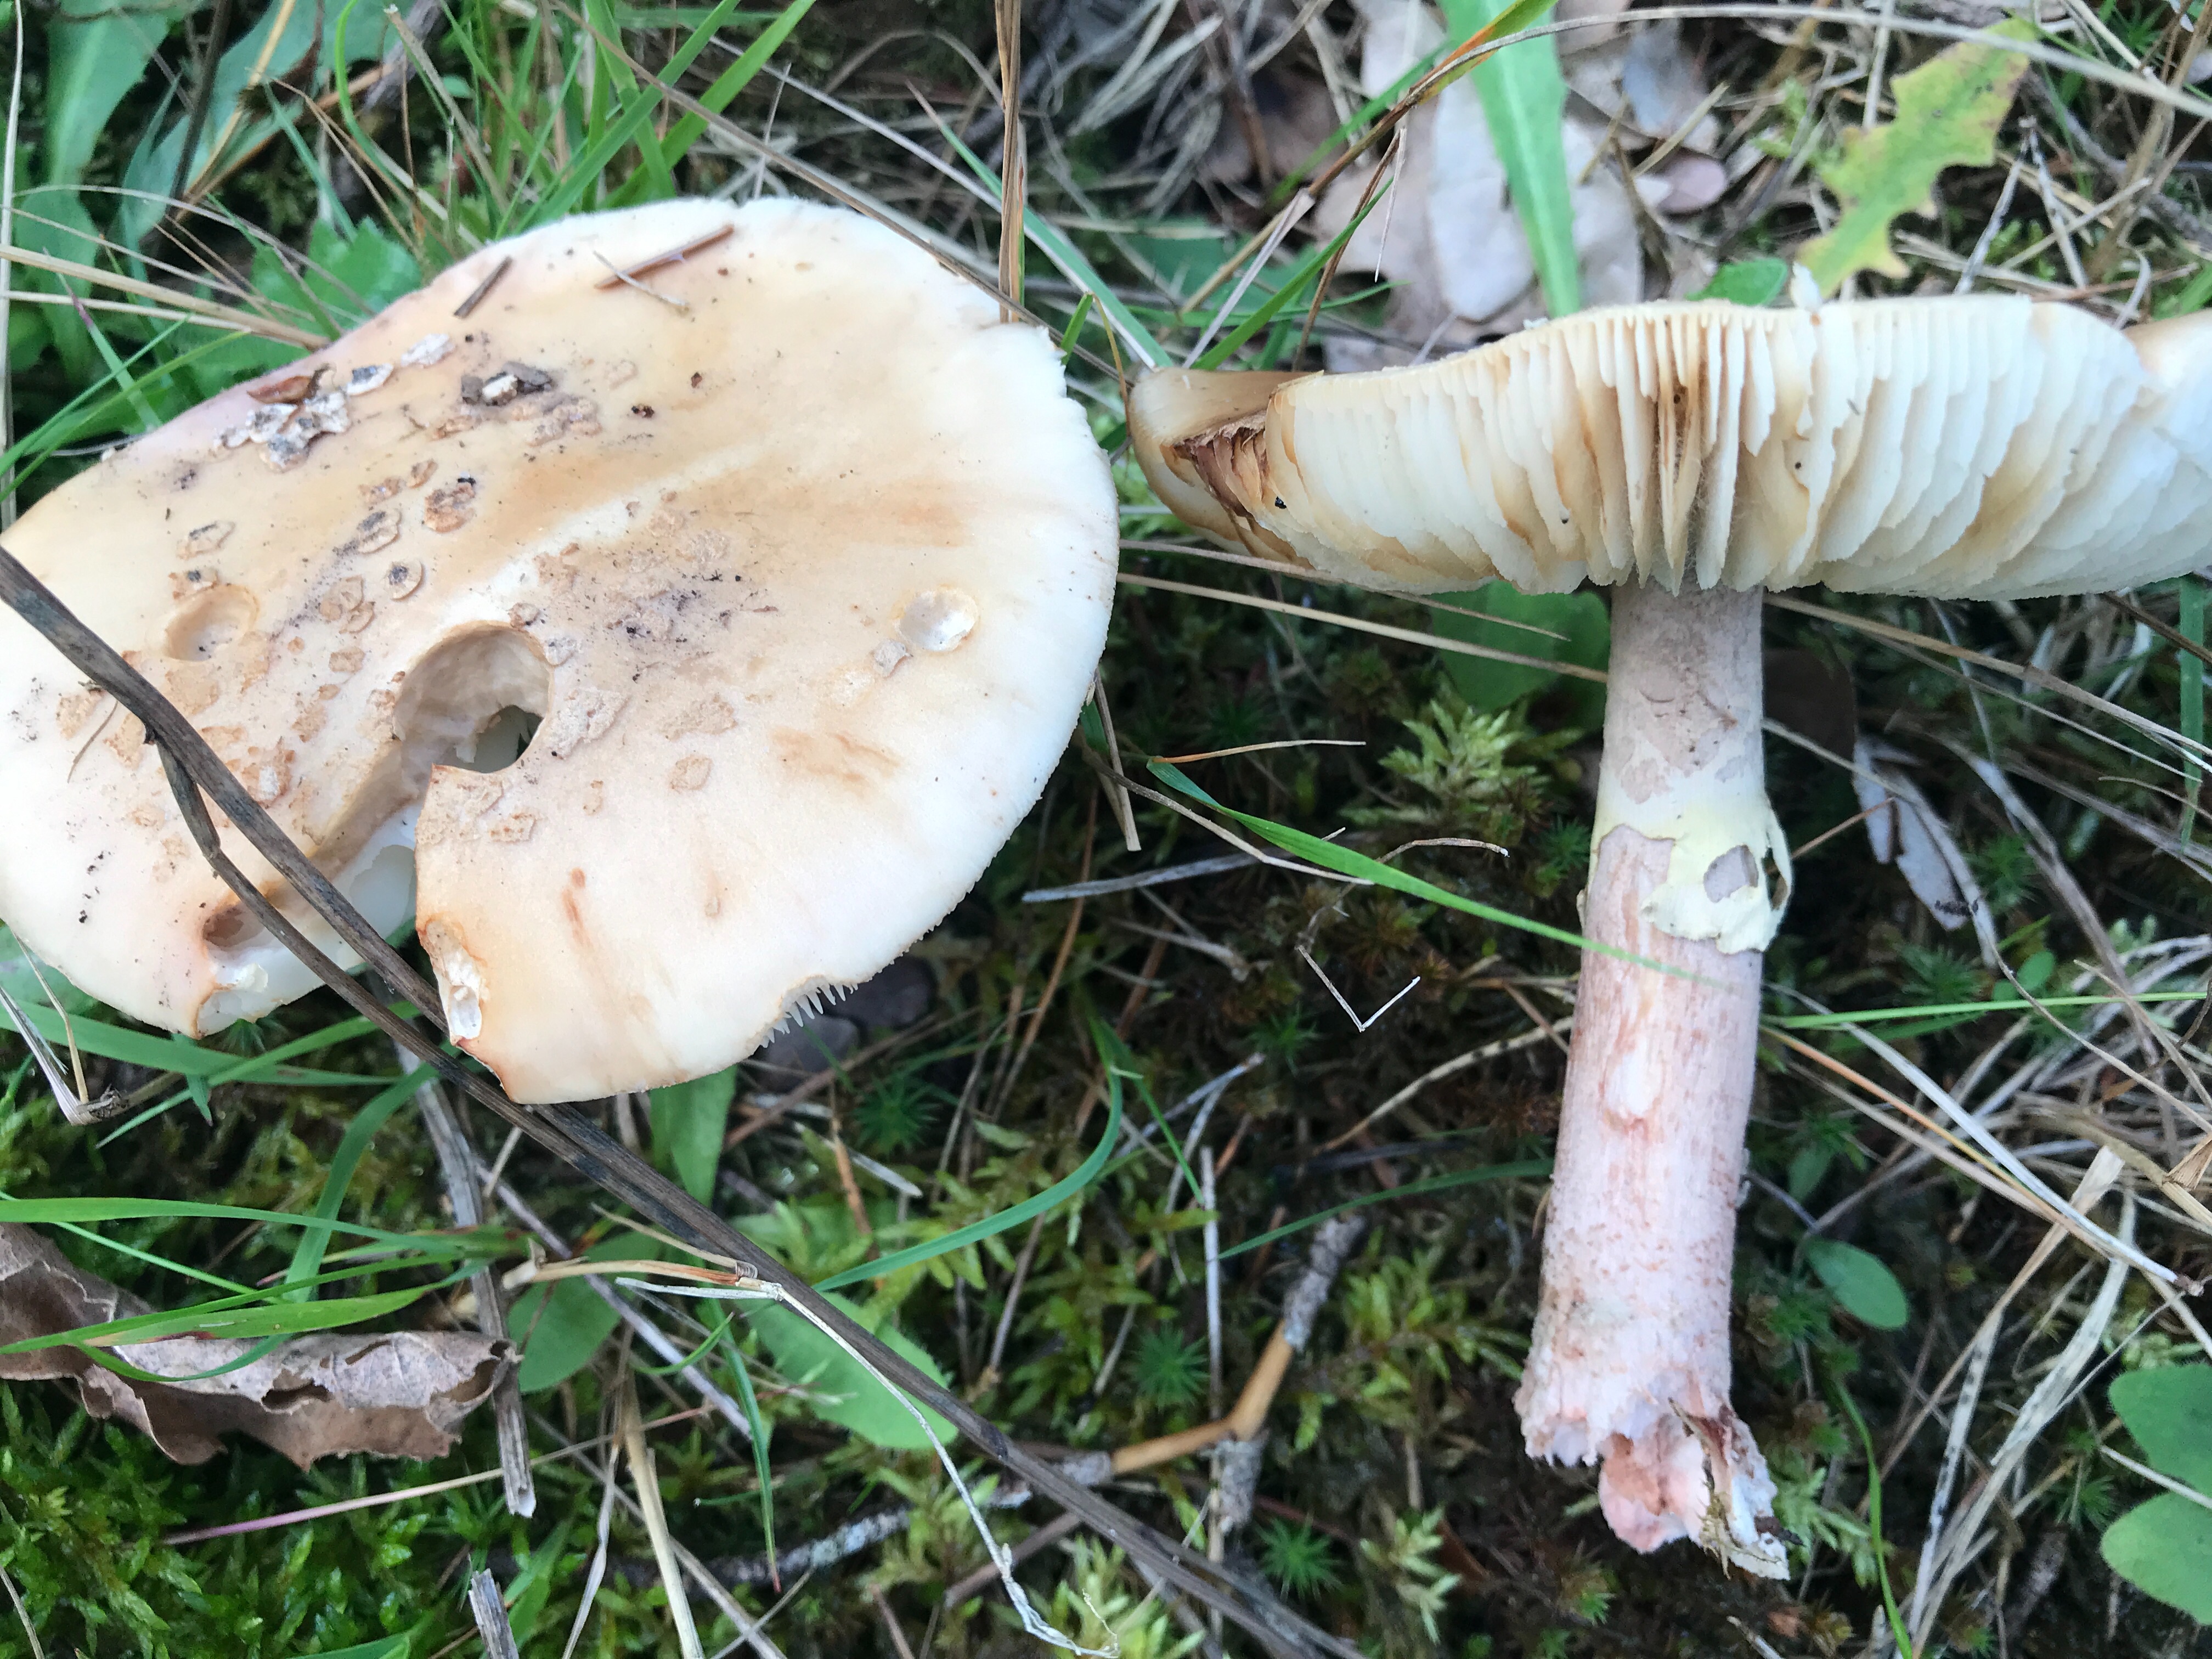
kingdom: Fungi
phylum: Basidiomycota
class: Agaricomycetes
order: Agaricales
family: Amanitaceae
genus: Amanita
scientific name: Amanita rubescens
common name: rødmende fluesvamp
